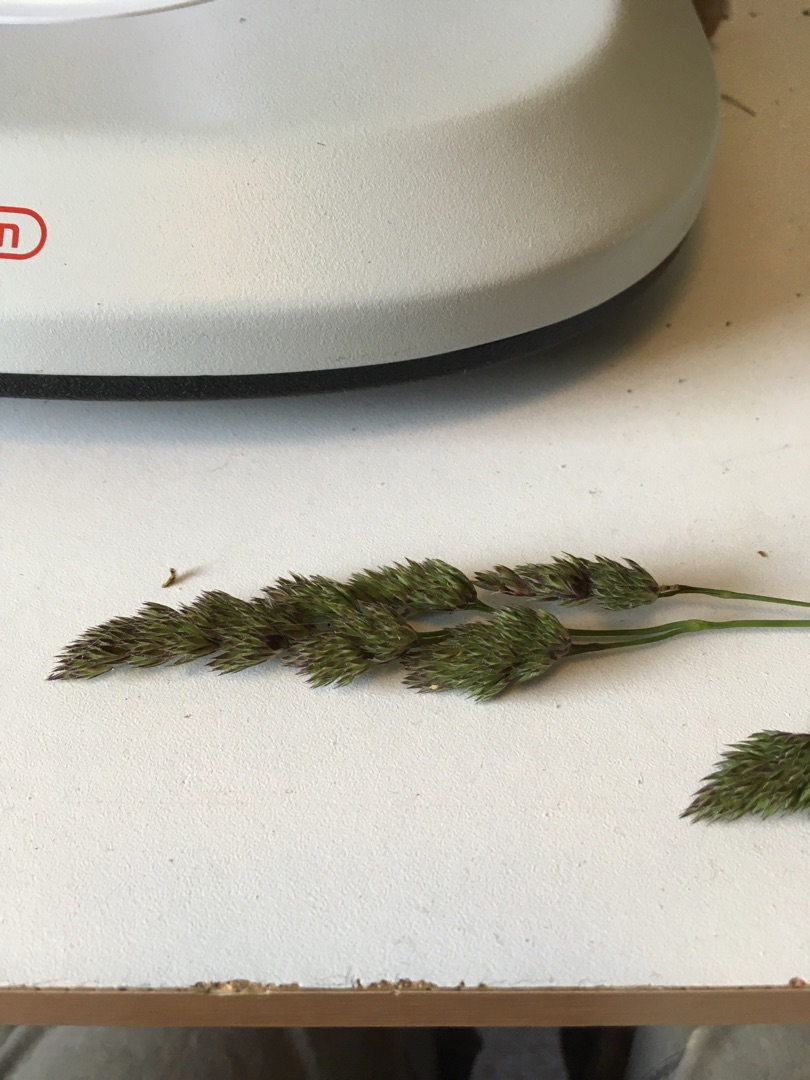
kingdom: Plantae
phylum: Tracheophyta
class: Liliopsida
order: Poales
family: Poaceae
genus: Dactylis
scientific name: Dactylis glomerata
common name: Almindelig hundegræs
